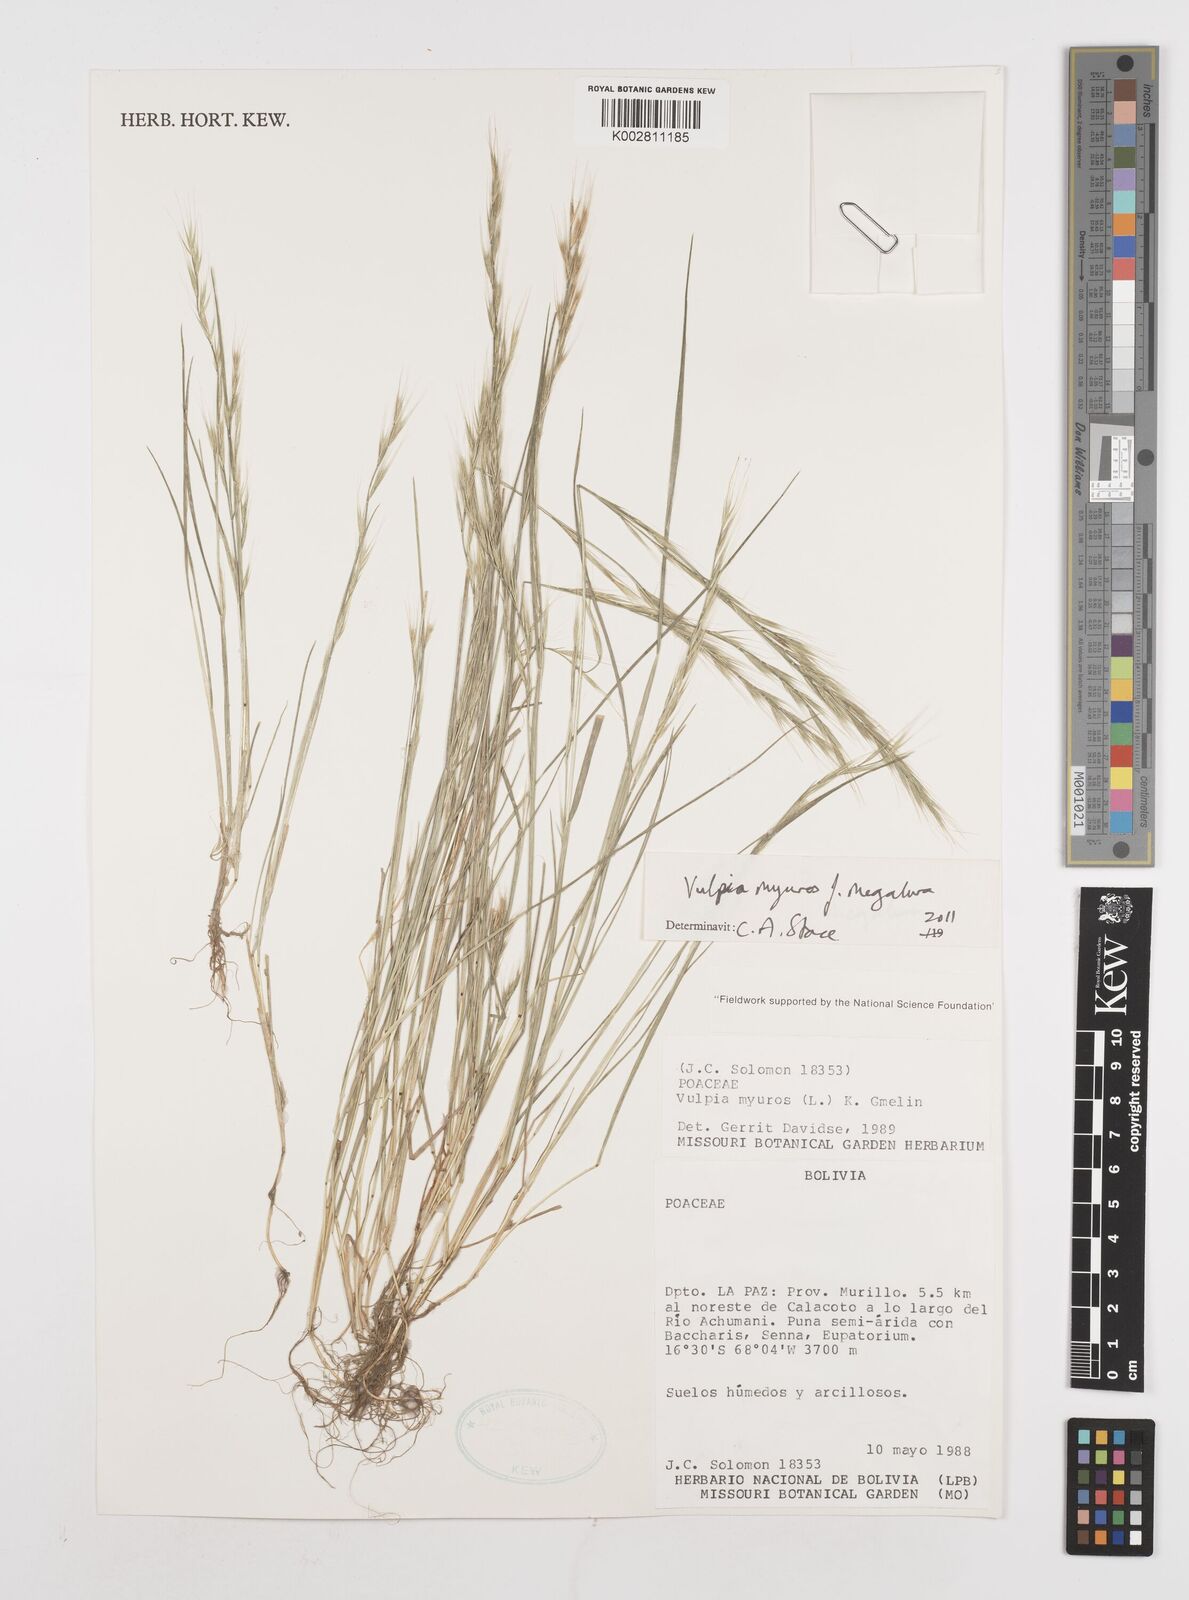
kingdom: Plantae
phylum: Tracheophyta
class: Liliopsida
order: Poales
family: Poaceae
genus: Festuca
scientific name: Festuca myuros
